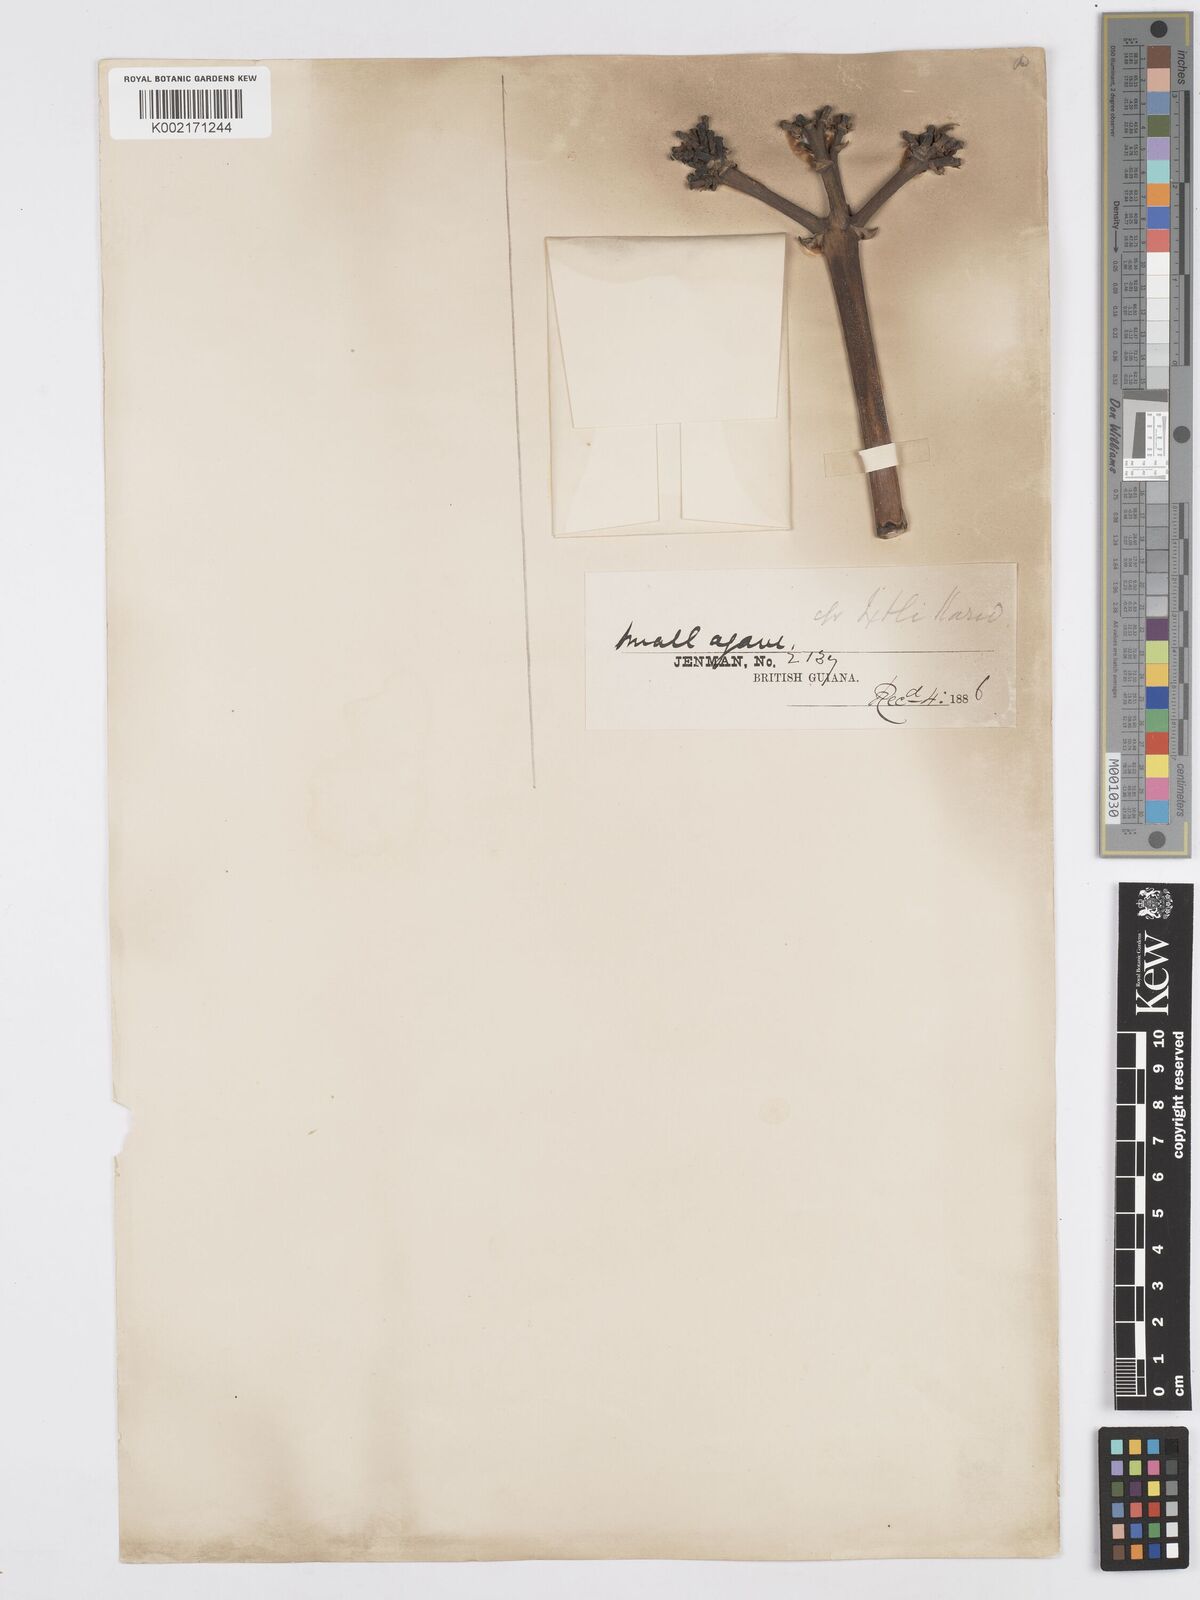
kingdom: Plantae
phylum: Tracheophyta
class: Liliopsida
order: Asparagales
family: Asparagaceae
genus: Agave
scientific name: Agave
